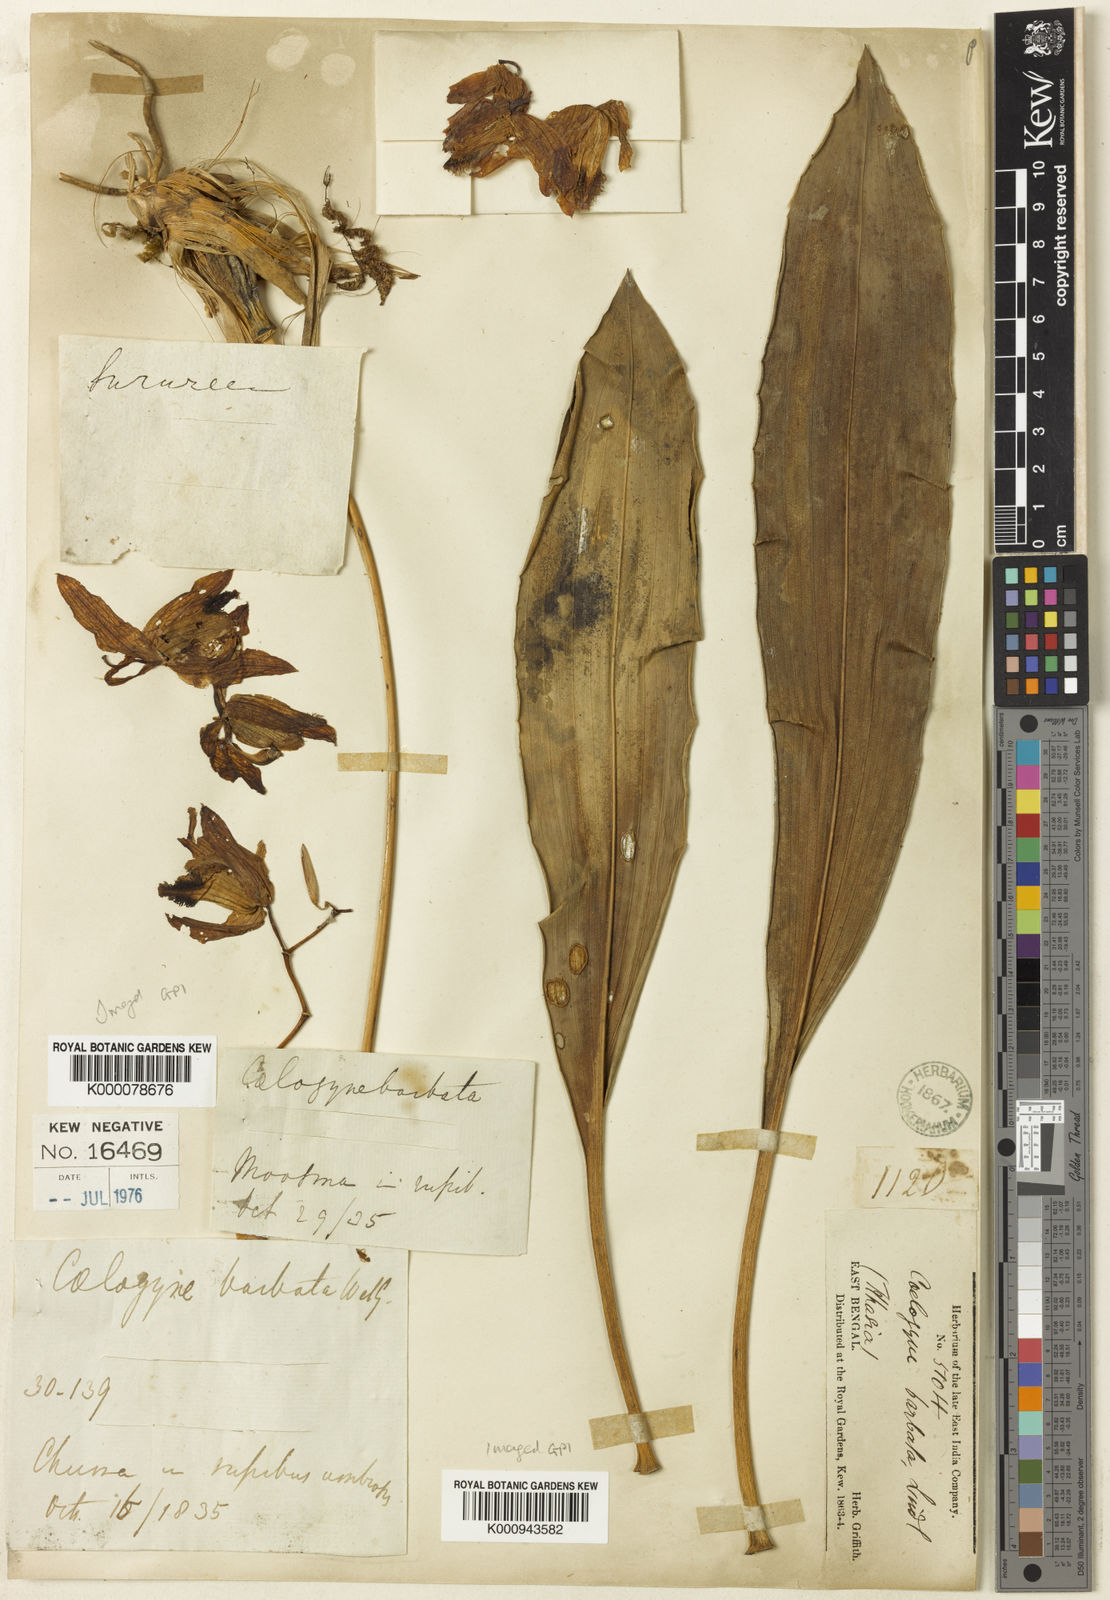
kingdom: Plantae
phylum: Tracheophyta
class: Liliopsida
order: Asparagales
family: Orchidaceae
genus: Coelogyne
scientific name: Coelogyne barbata
